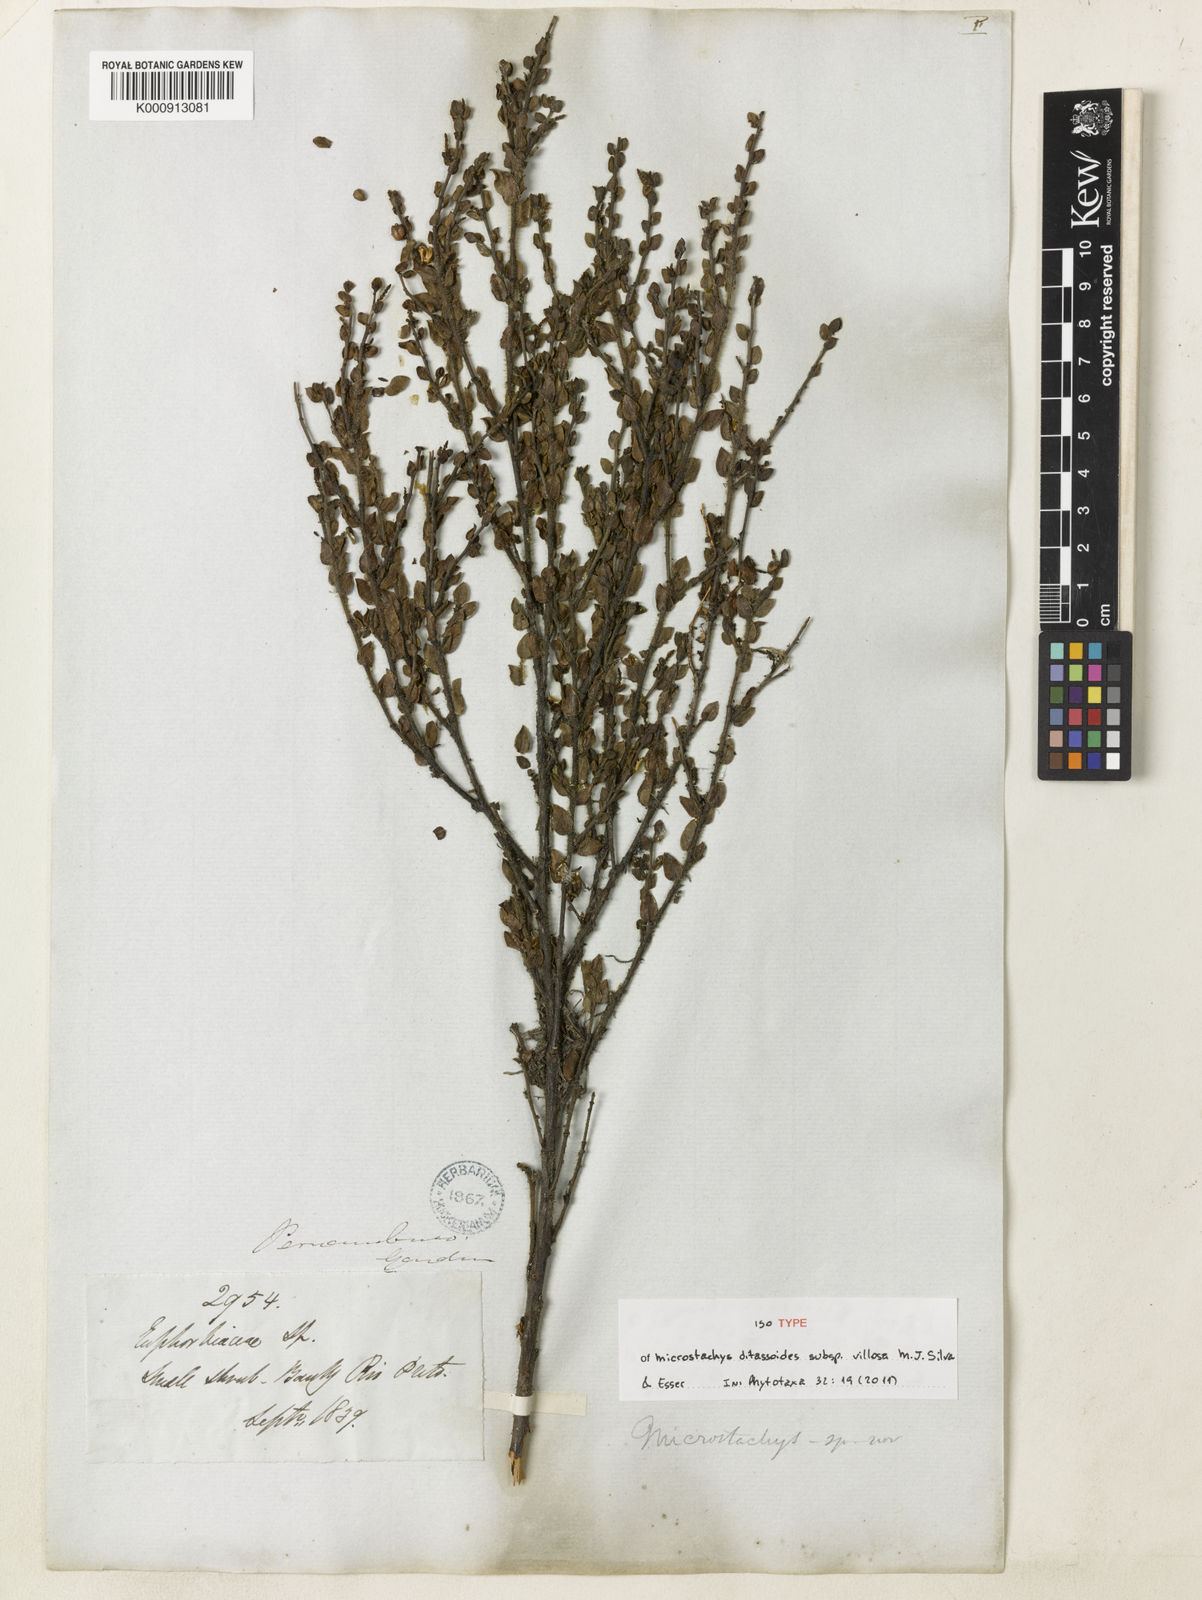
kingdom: Plantae
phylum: Tracheophyta
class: Magnoliopsida
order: Malpighiales
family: Euphorbiaceae
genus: Microstachys
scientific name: Microstachys ditassoides
